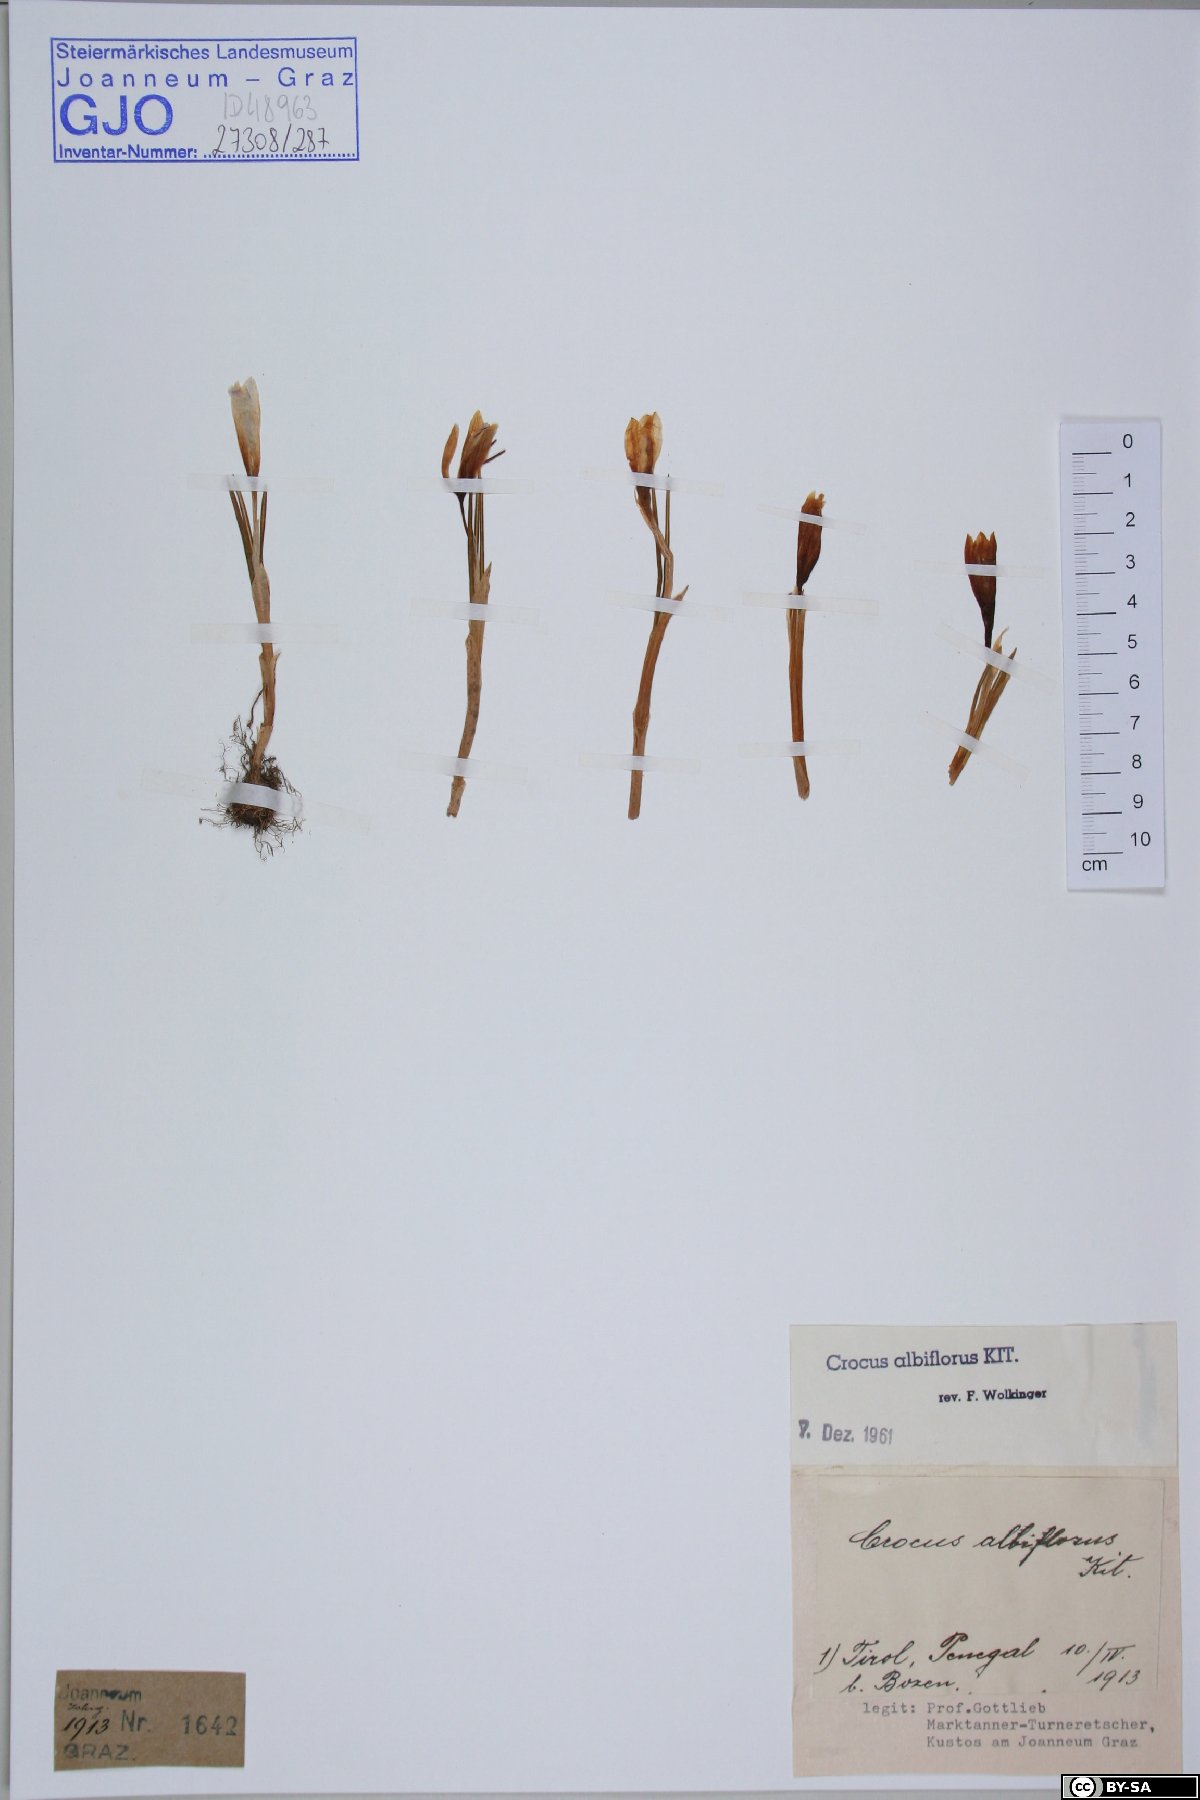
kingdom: Plantae
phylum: Tracheophyta
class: Liliopsida
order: Asparagales
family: Iridaceae
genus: Crocus
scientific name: Crocus vernus
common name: Spring crocus
